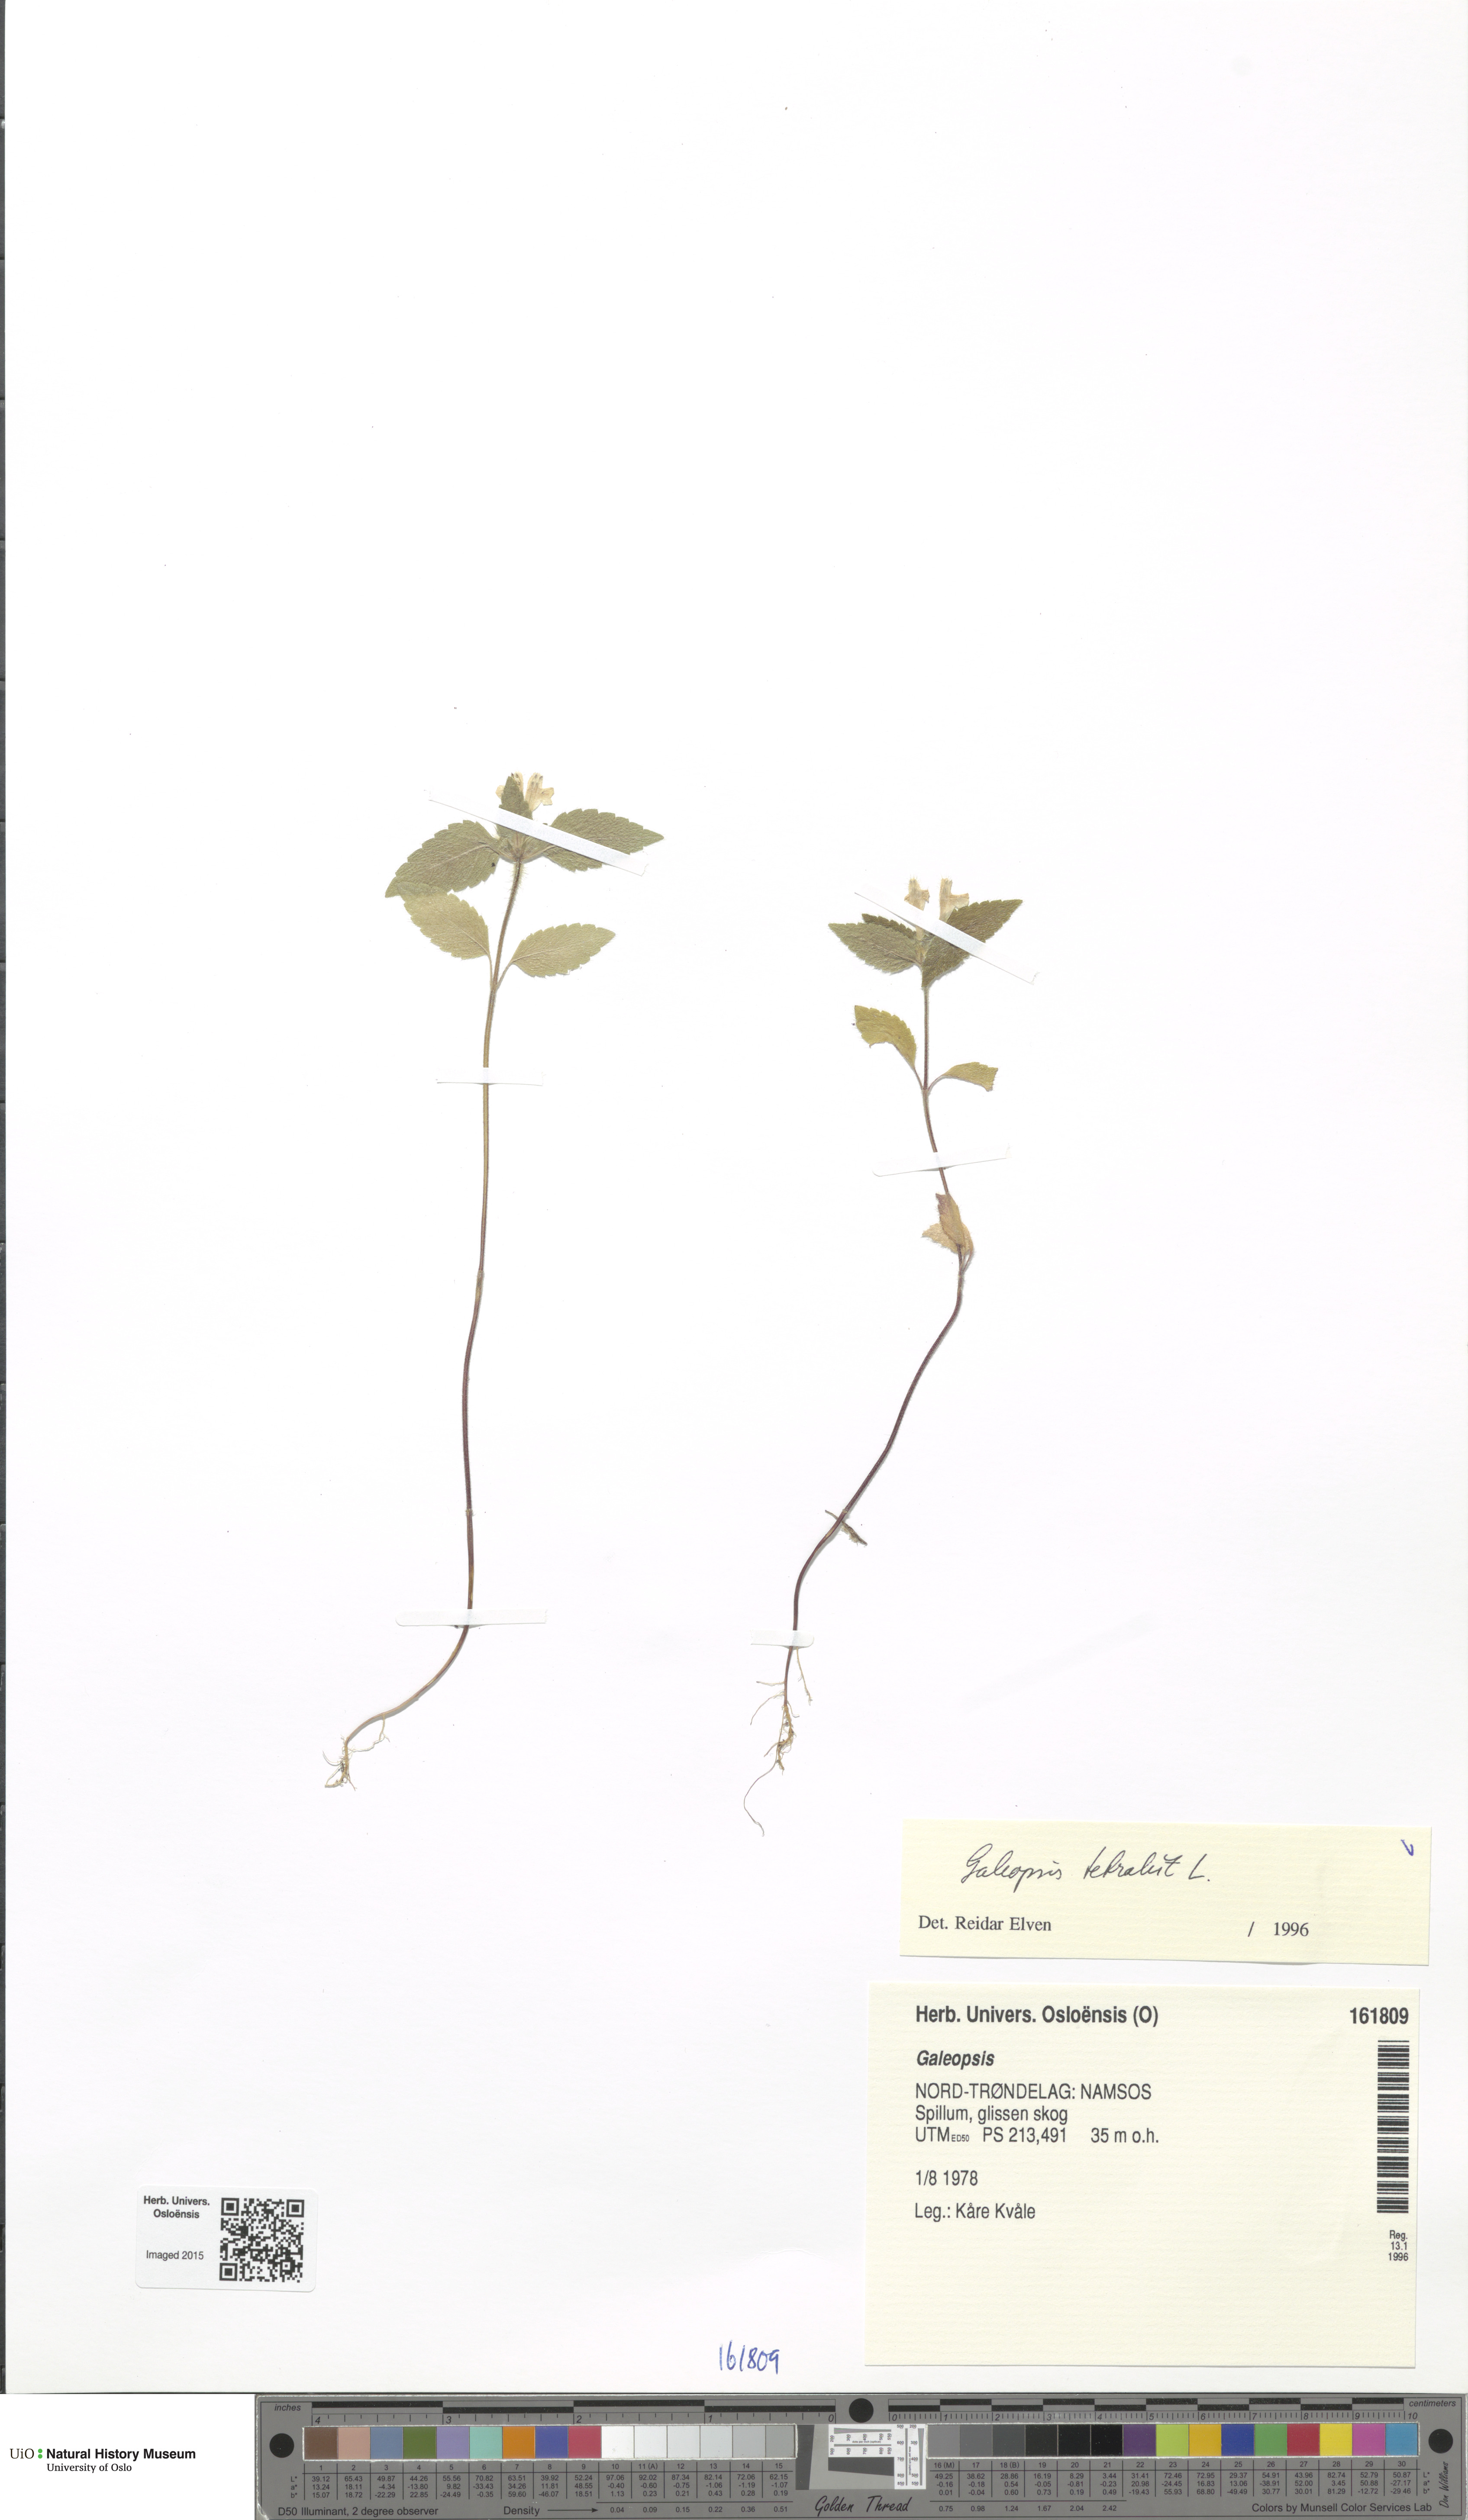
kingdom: Plantae
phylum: Tracheophyta
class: Magnoliopsida
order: Lamiales
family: Lamiaceae
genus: Galeopsis
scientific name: Galeopsis tetrahit
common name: Common hemp-nettle
